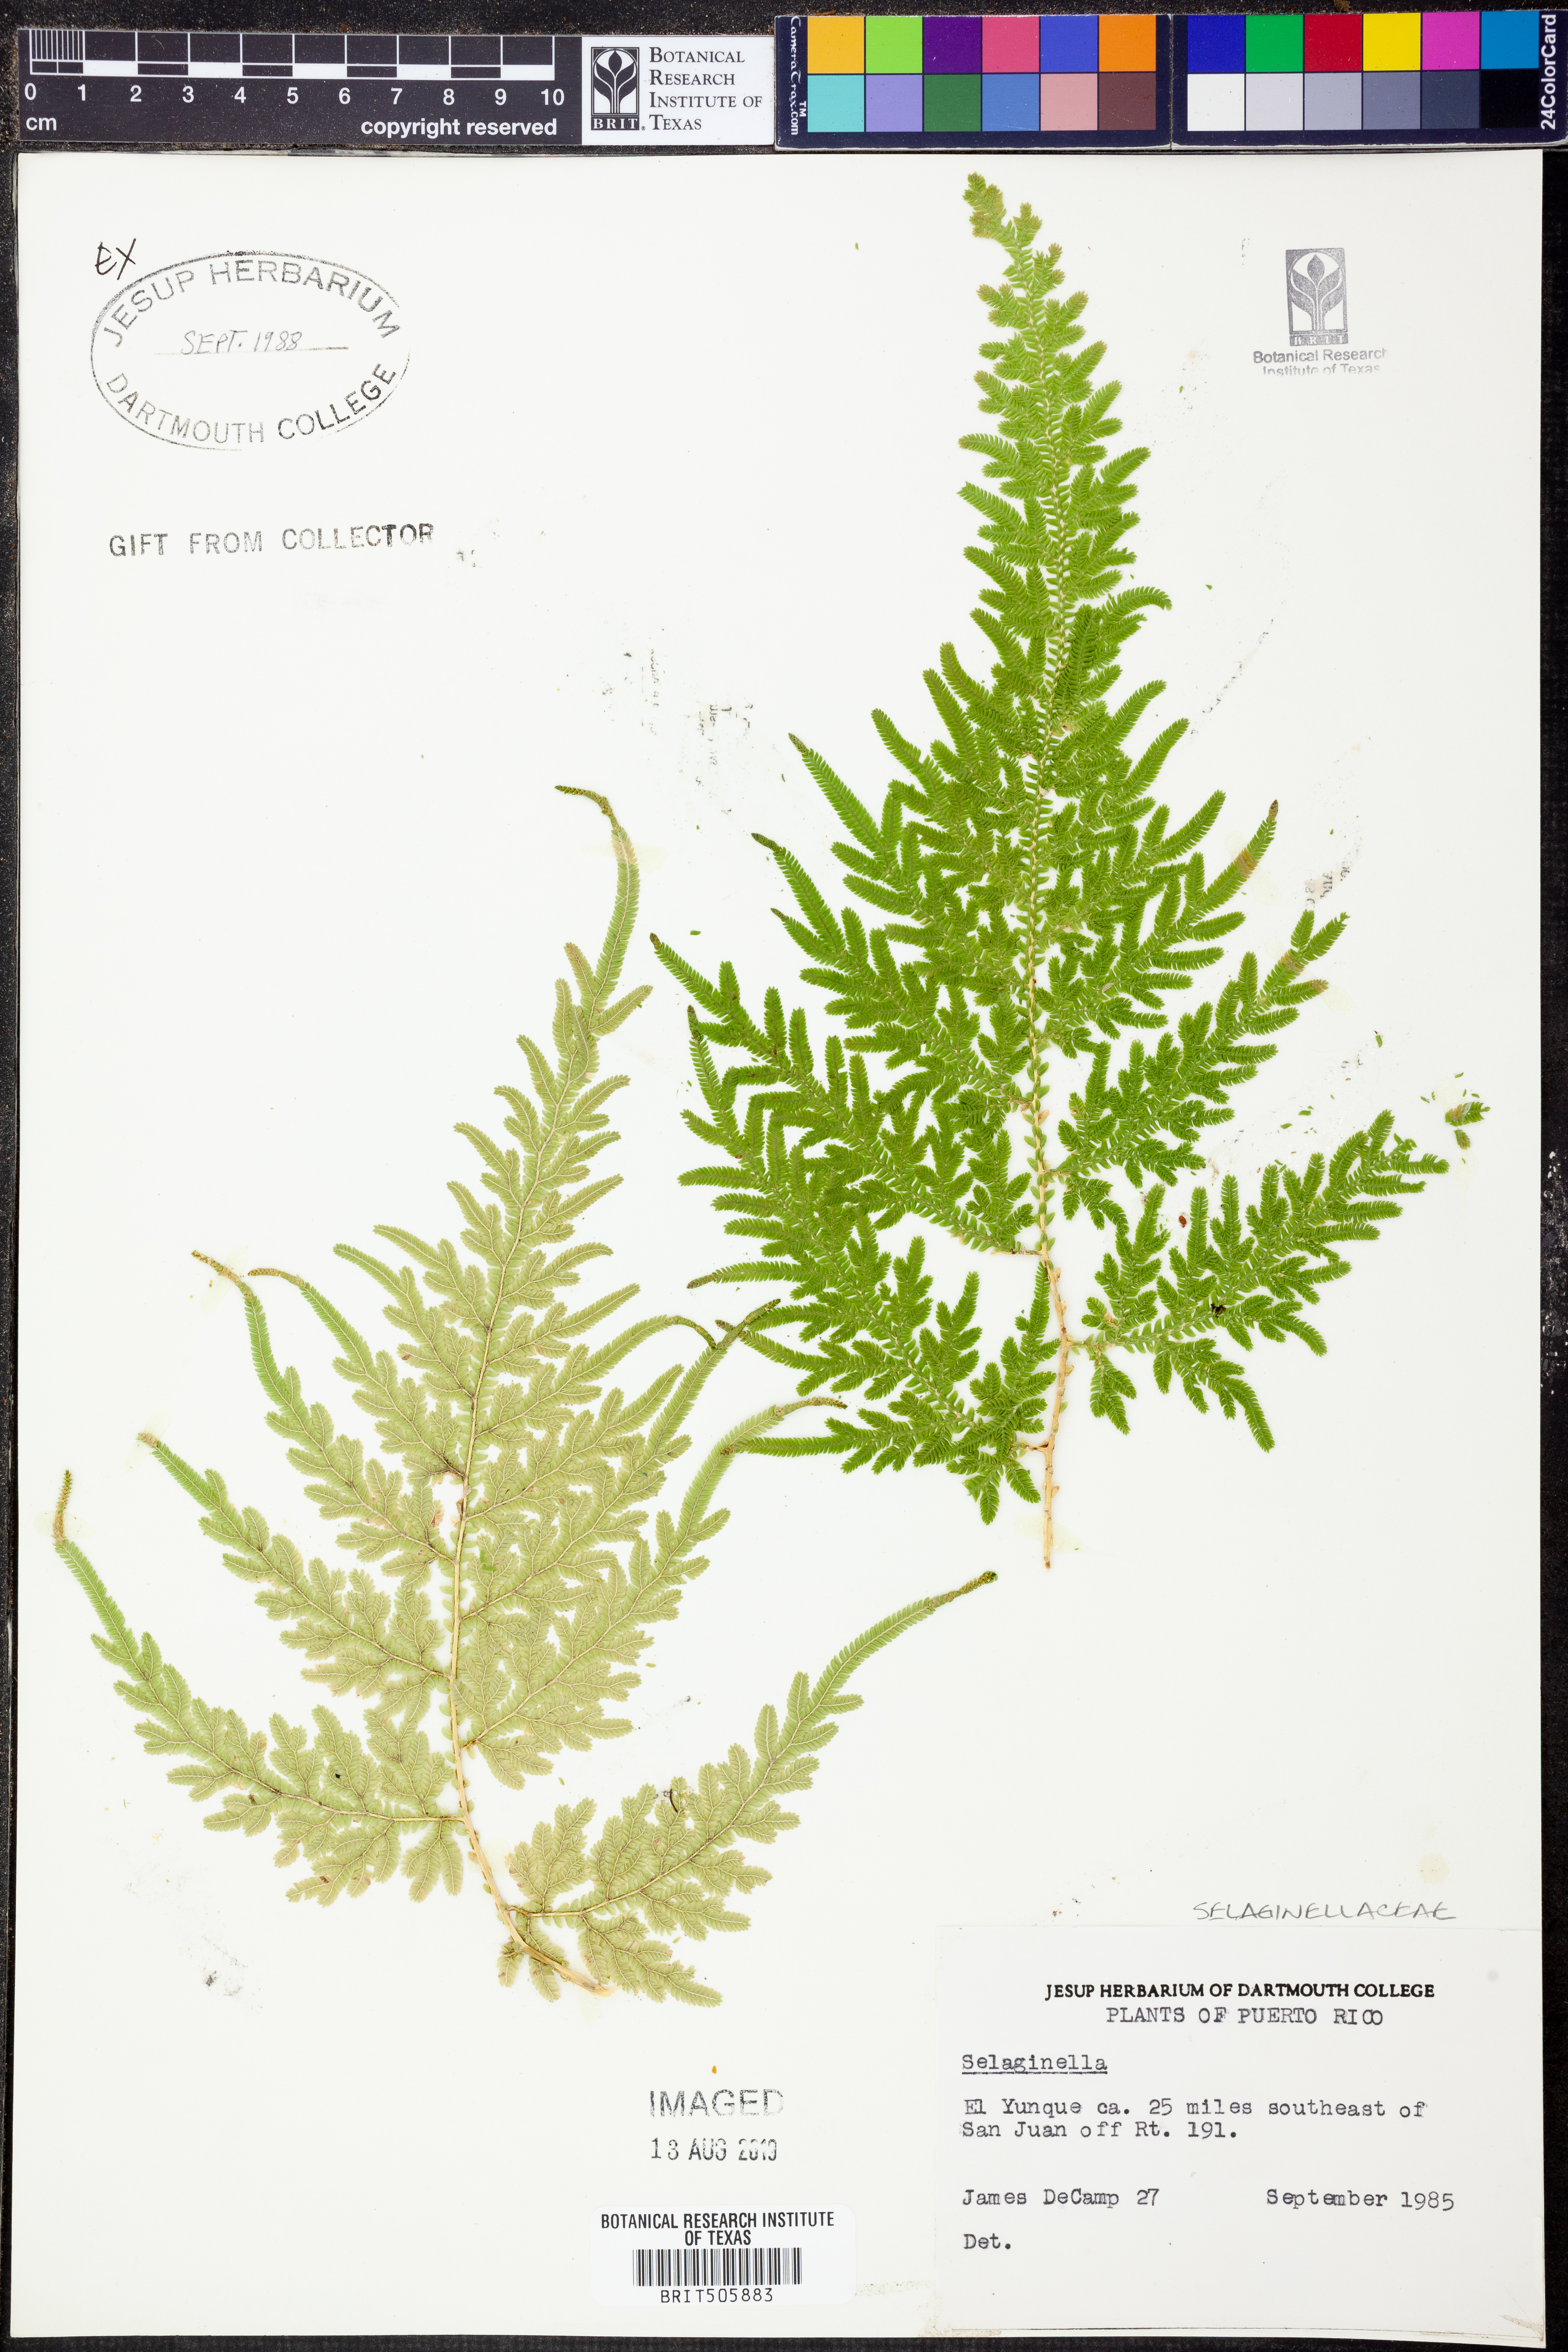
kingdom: Plantae
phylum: Tracheophyta
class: Lycopodiopsida
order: Selaginellales
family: Selaginellaceae
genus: Selaginella
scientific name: Selaginella
